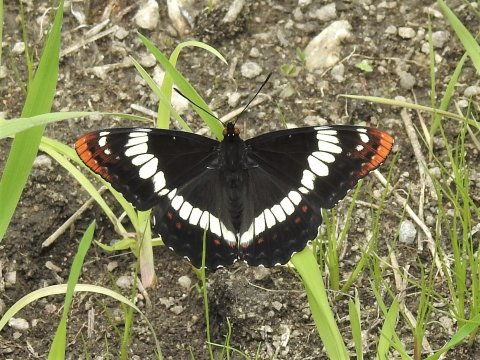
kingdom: Animalia
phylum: Arthropoda
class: Insecta
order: Lepidoptera
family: Nymphalidae
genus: Limenitis
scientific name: Limenitis lorquini
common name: Lorquin's Admiral
